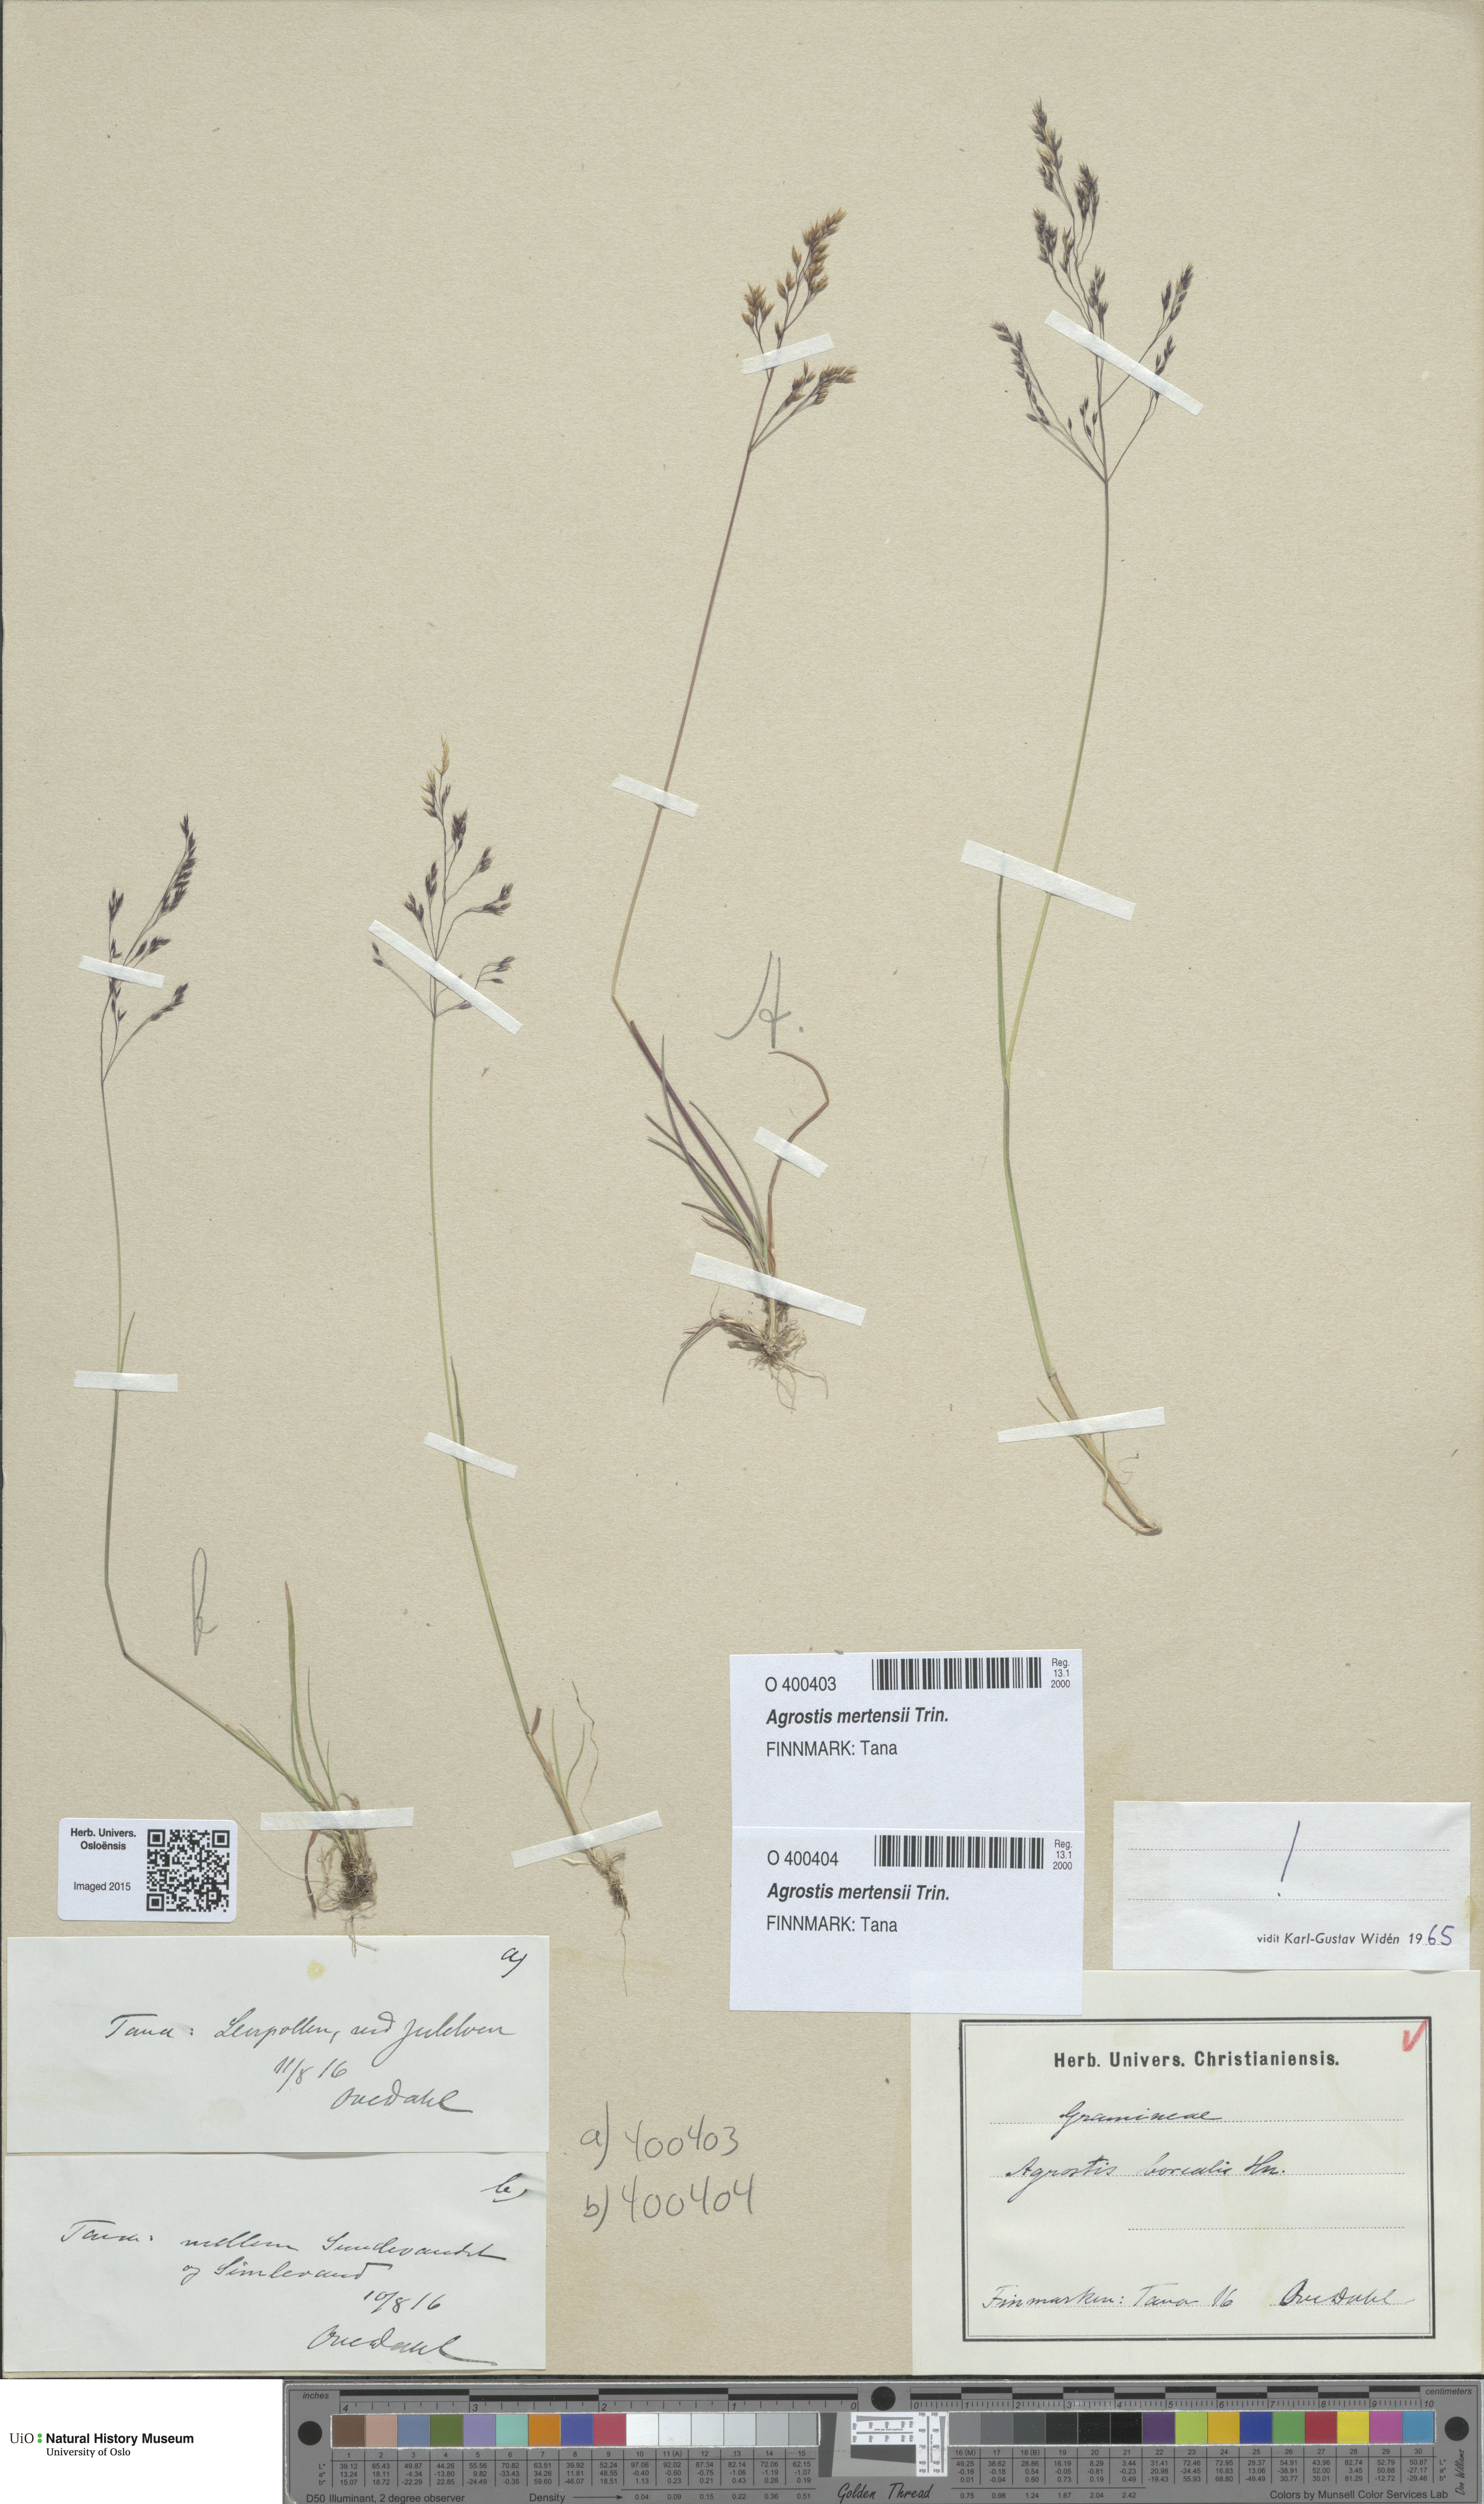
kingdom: Plantae
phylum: Tracheophyta
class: Liliopsida
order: Poales
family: Poaceae
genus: Agrostis
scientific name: Agrostis mertensii
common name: Northern bent
